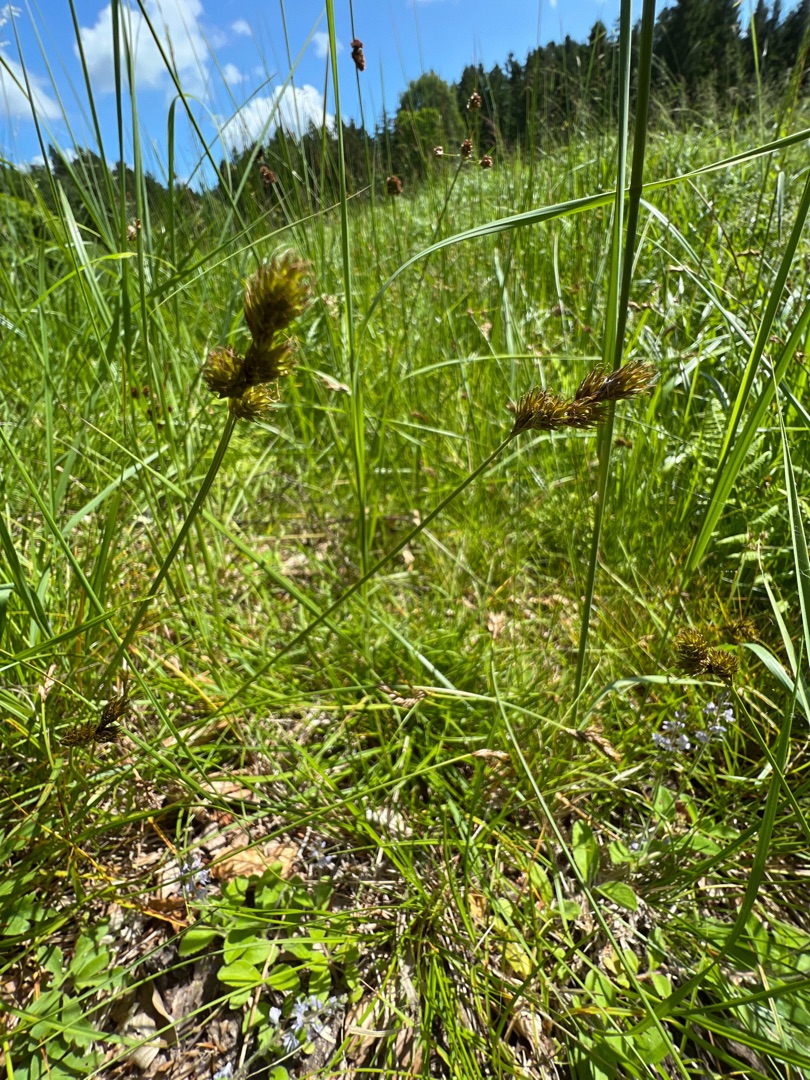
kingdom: Plantae
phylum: Tracheophyta
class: Liliopsida
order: Poales
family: Cyperaceae
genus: Carex
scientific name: Carex leporina
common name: Hare-star
